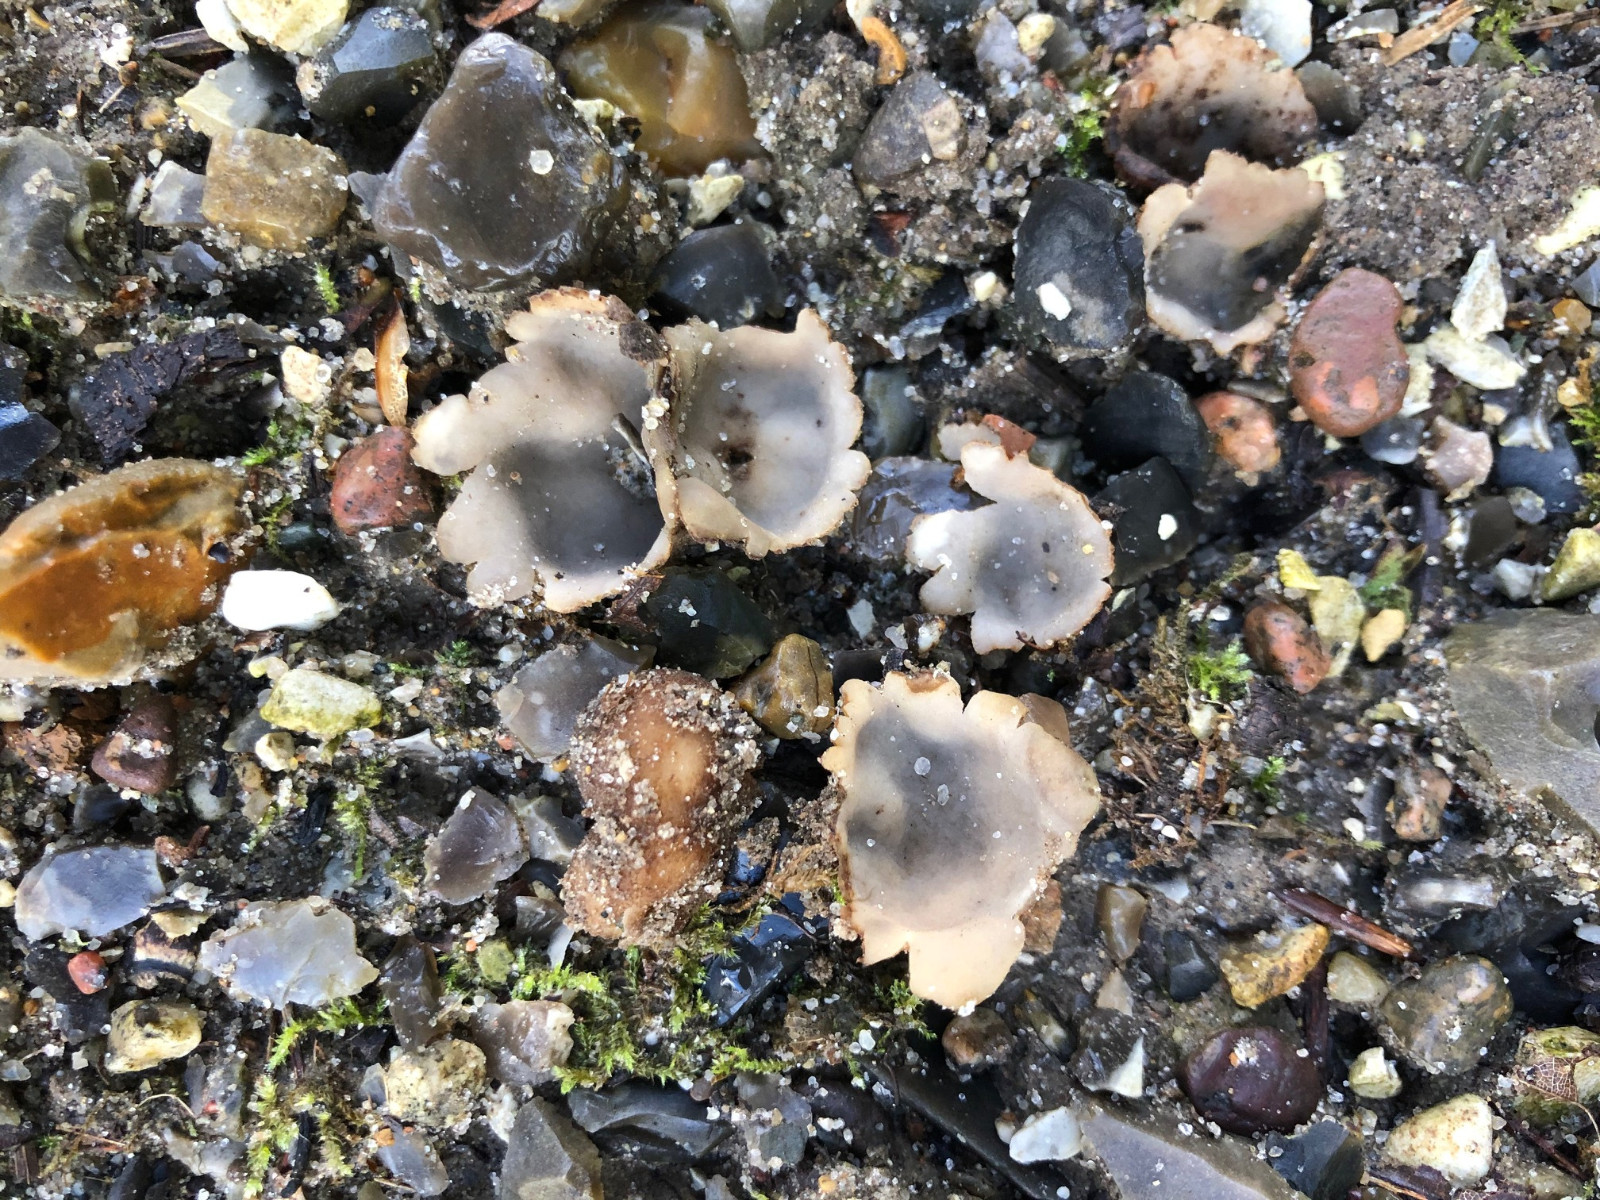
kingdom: Fungi
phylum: Ascomycota
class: Pezizomycetes
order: Pezizales
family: Pyronemataceae
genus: Geopora
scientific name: Geopora arenicola
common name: trøffel-jordbæger
